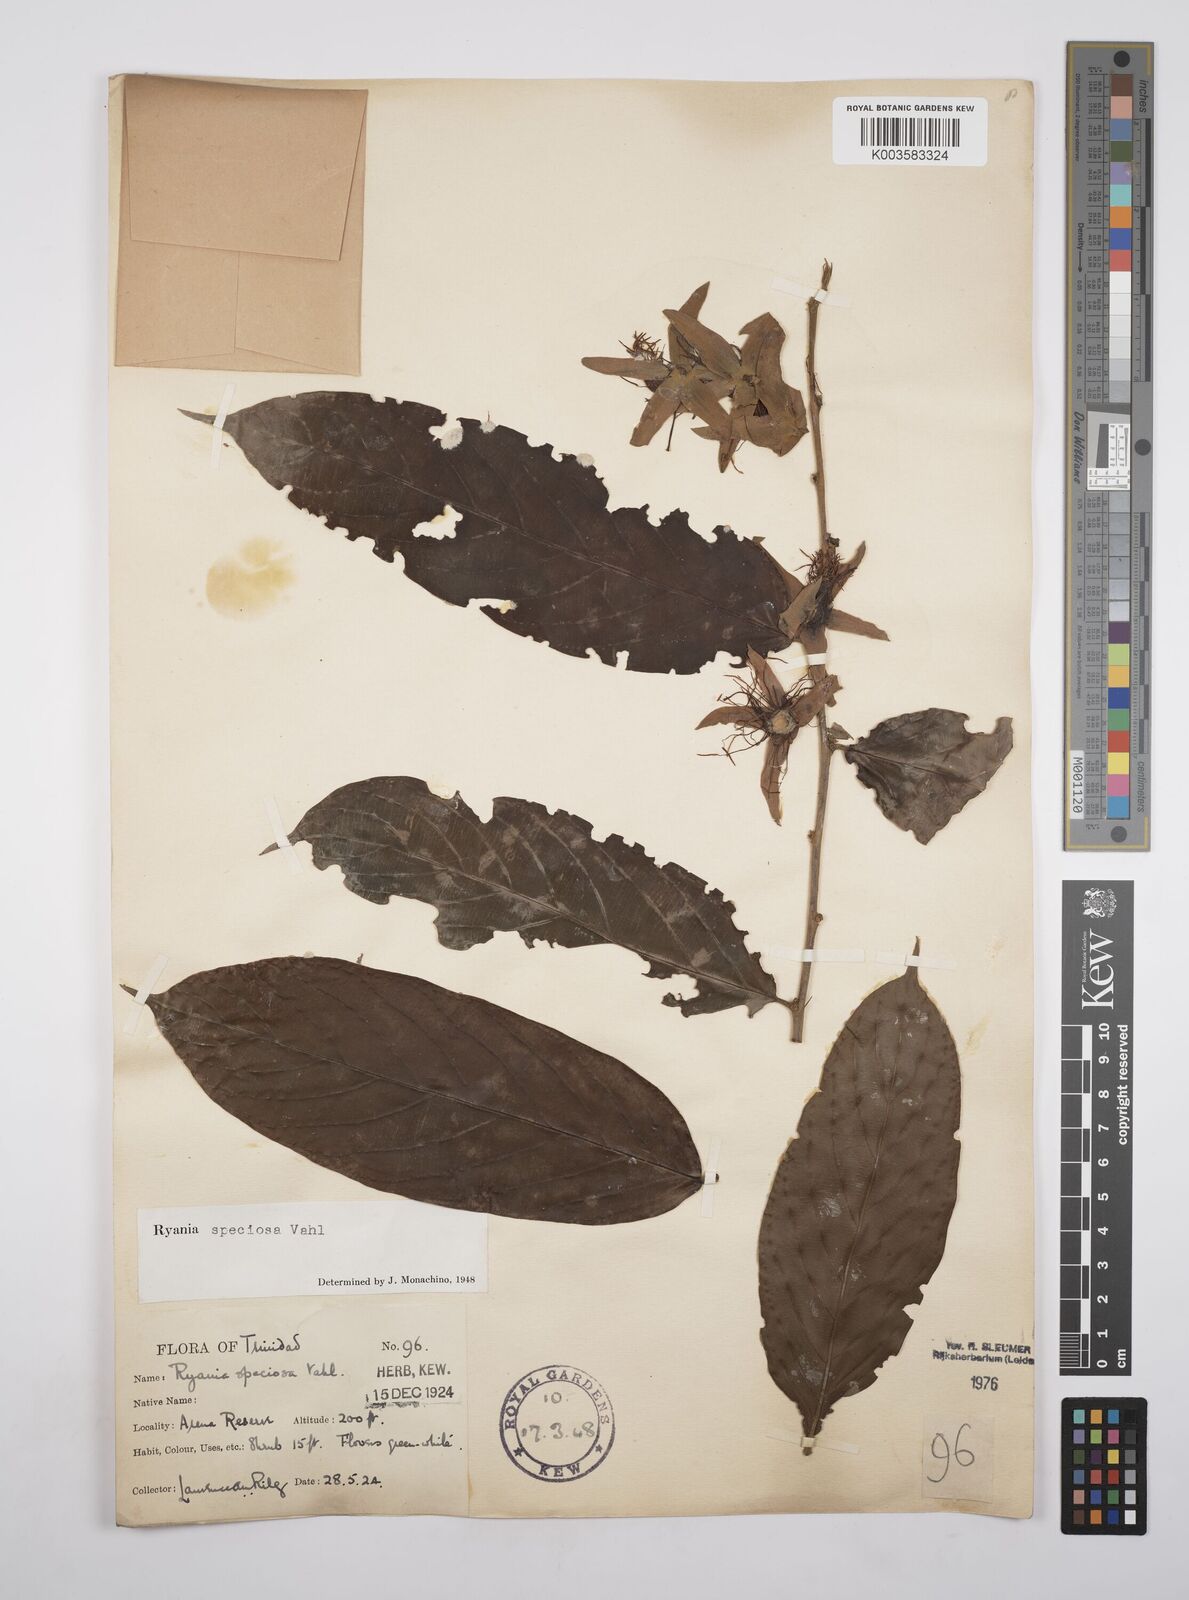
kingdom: Plantae
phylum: Tracheophyta
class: Magnoliopsida
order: Malpighiales
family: Salicaceae
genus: Ryania
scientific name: Ryania speciosa
